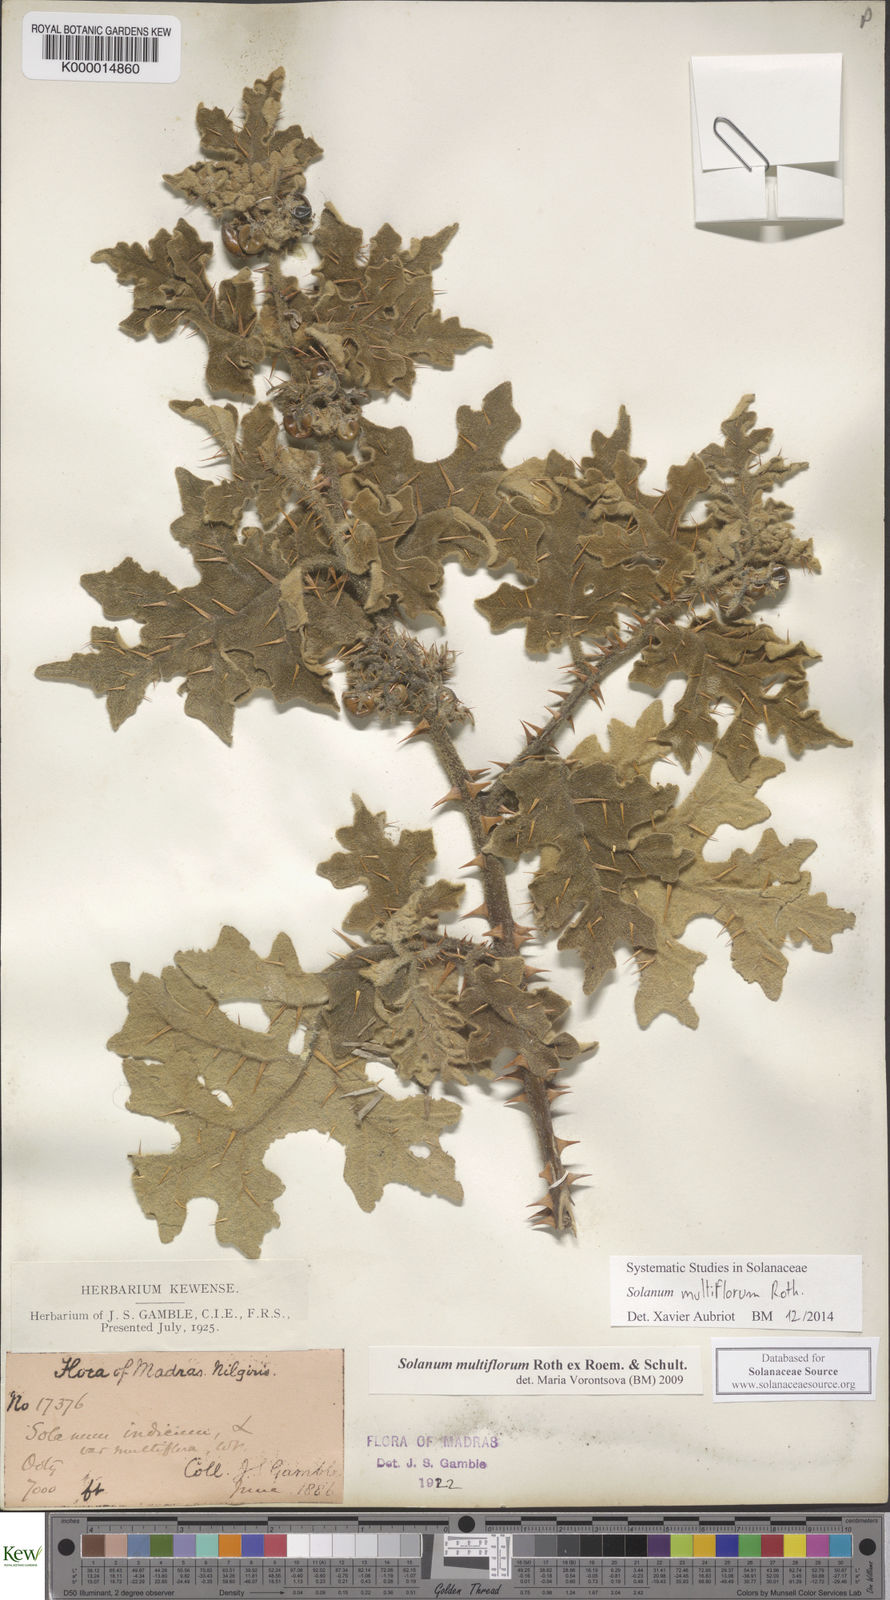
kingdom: Plantae
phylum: Tracheophyta
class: Magnoliopsida
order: Solanales
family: Solanaceae
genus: Solanum
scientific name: Solanum multiflorum
